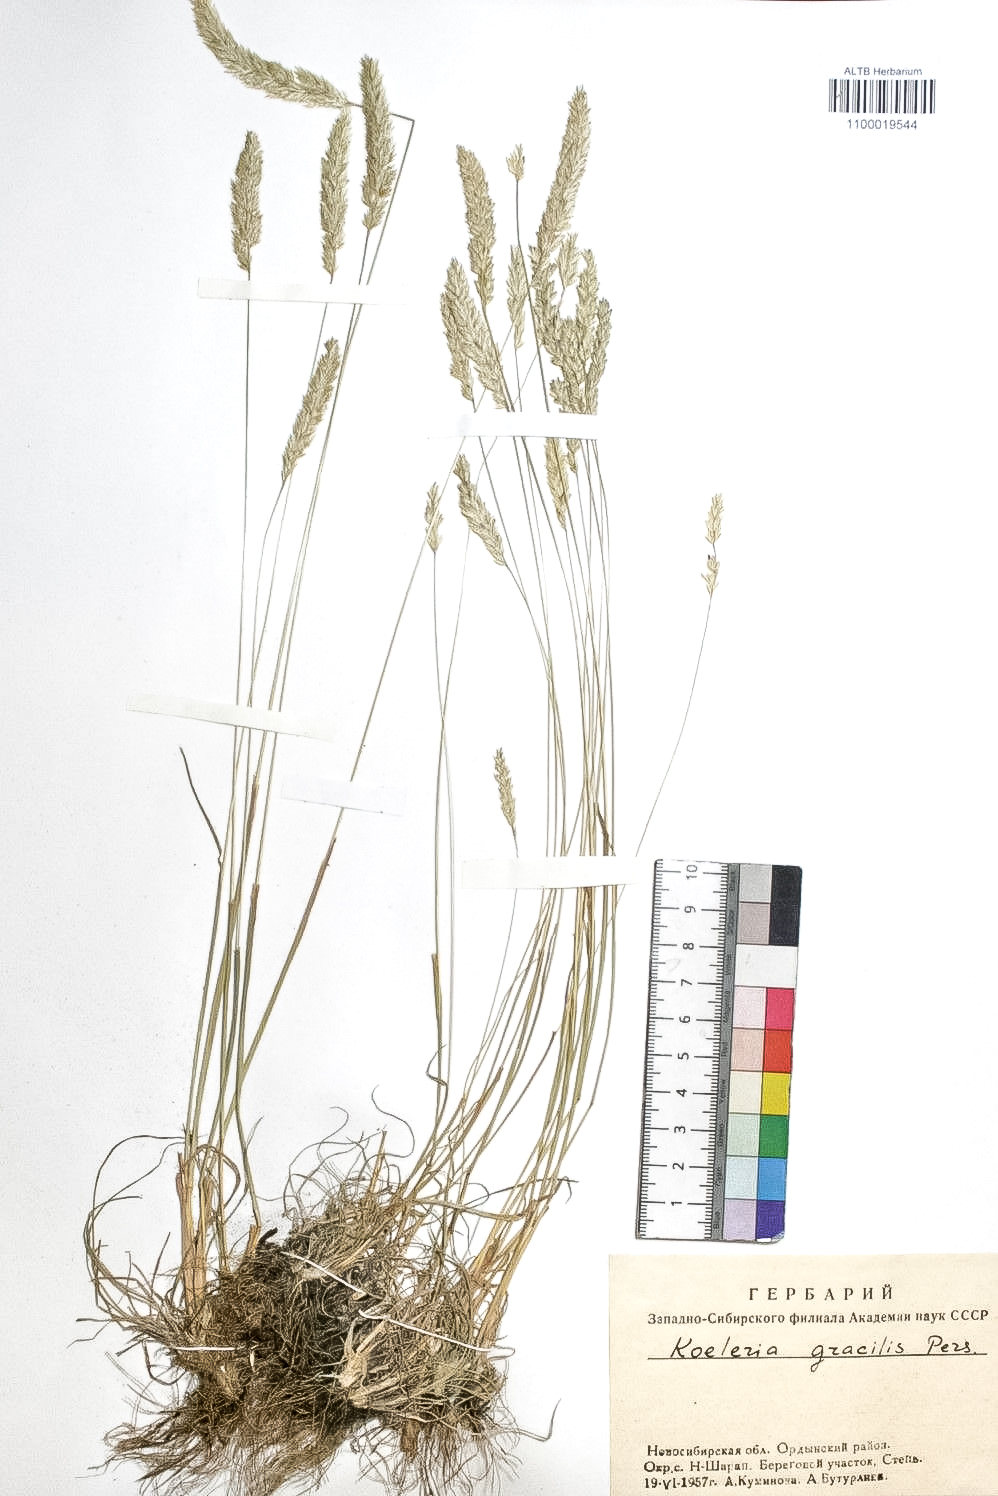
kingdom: Plantae
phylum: Tracheophyta
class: Liliopsida
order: Poales
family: Poaceae
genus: Koeleria
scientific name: Koeleria macrantha
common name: Crested hair-grass
